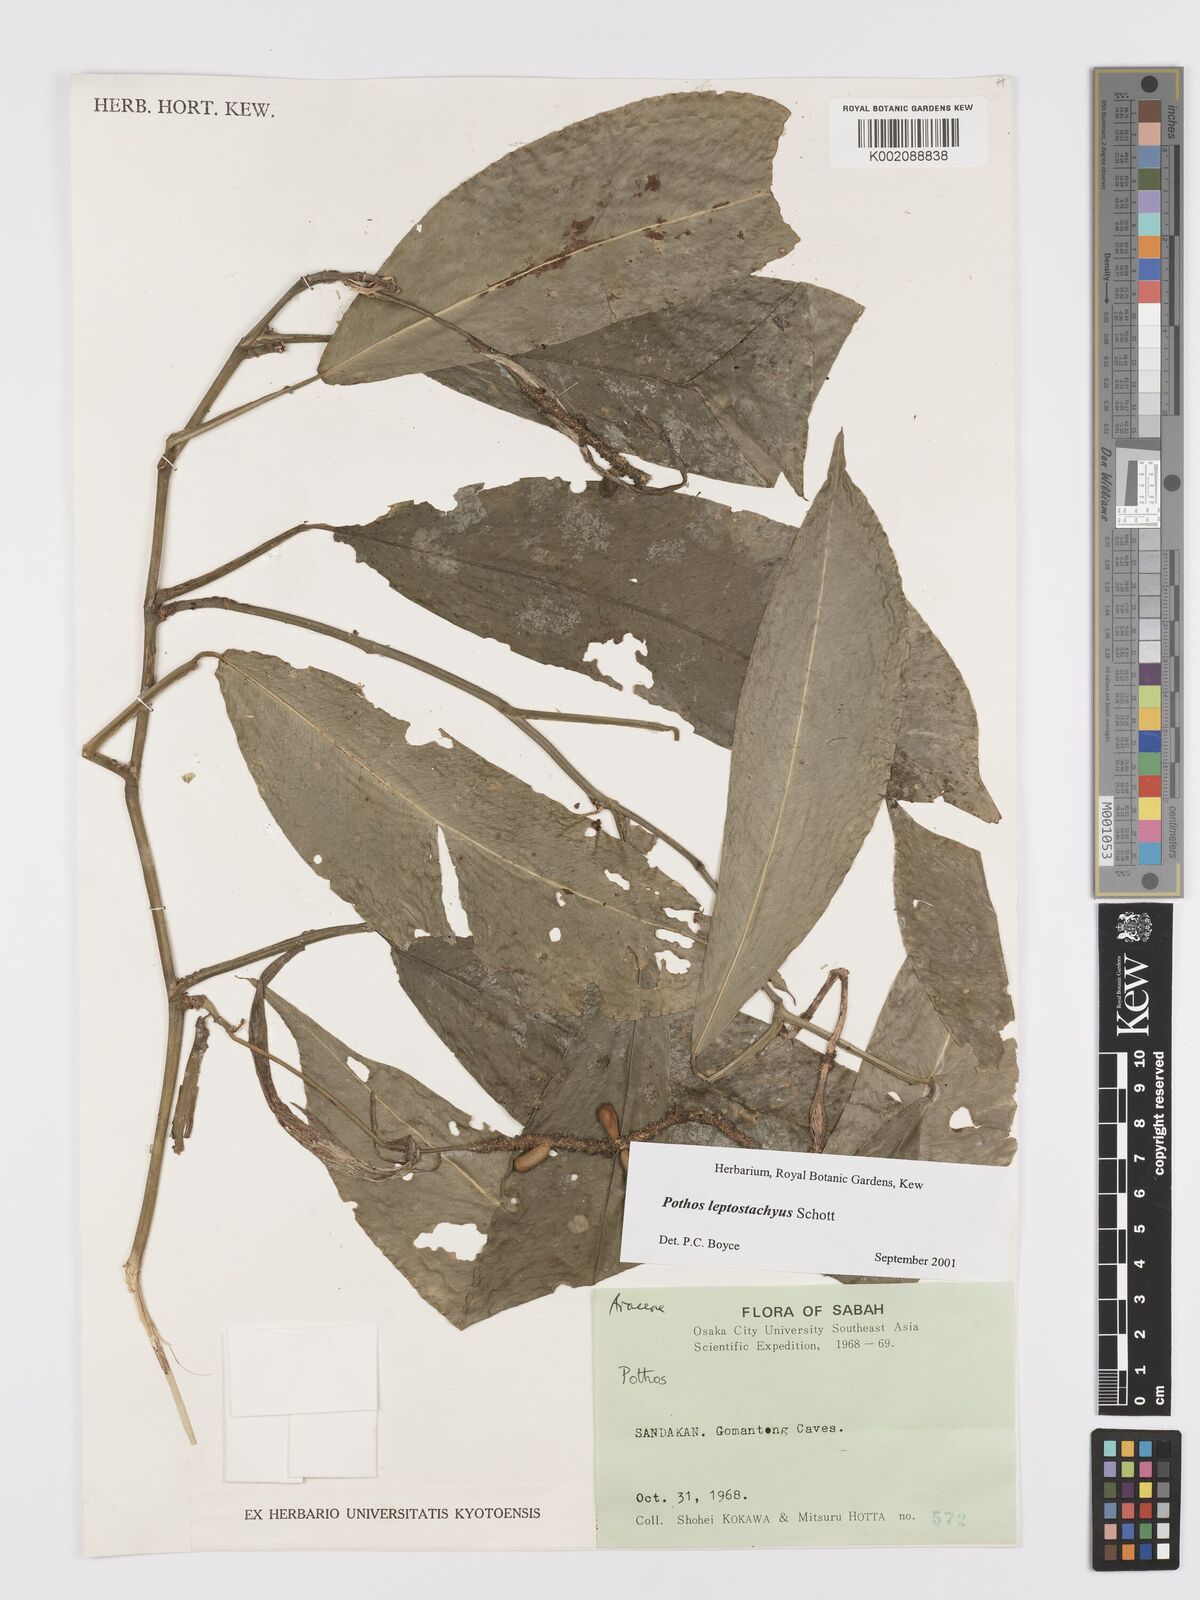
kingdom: Plantae
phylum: Tracheophyta
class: Liliopsida
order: Alismatales
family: Araceae
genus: Pothos
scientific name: Pothos leptostachyus
